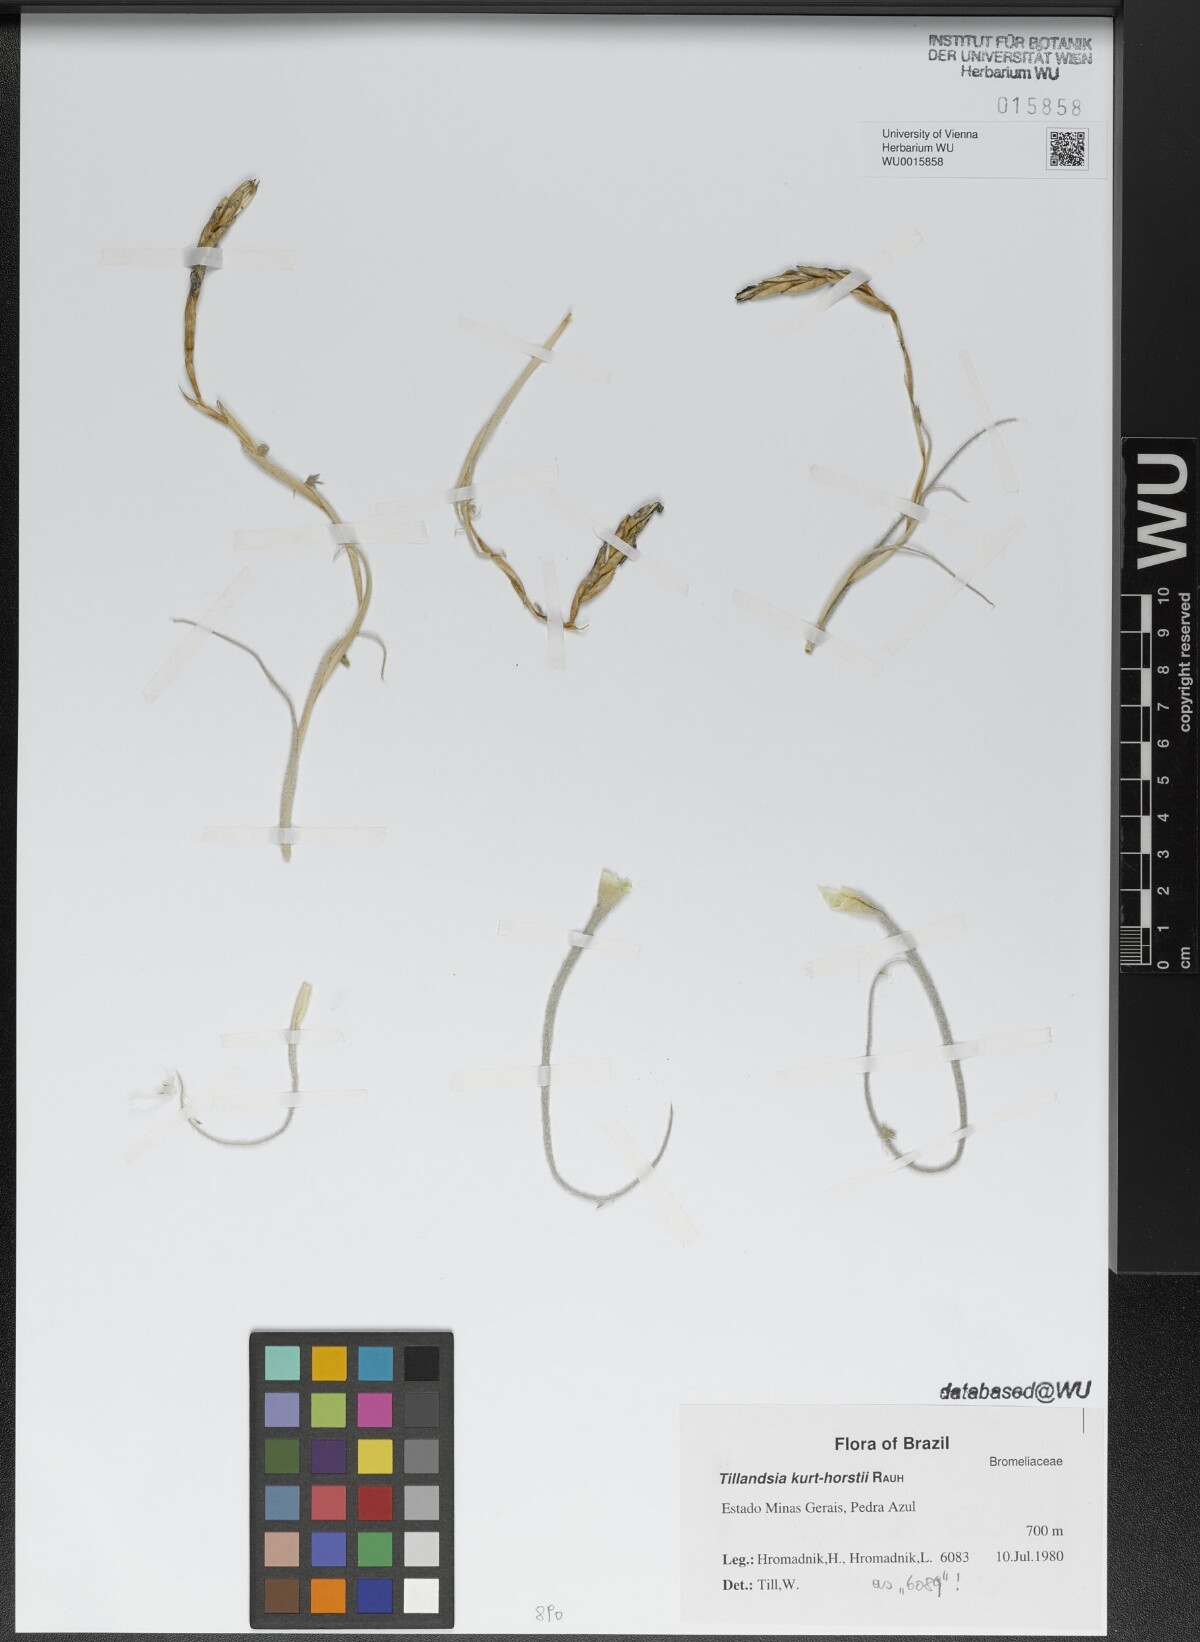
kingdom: Plantae
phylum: Tracheophyta
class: Liliopsida
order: Poales
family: Bromeliaceae
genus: Tillandsia
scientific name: Tillandsia grao-mogolensis
